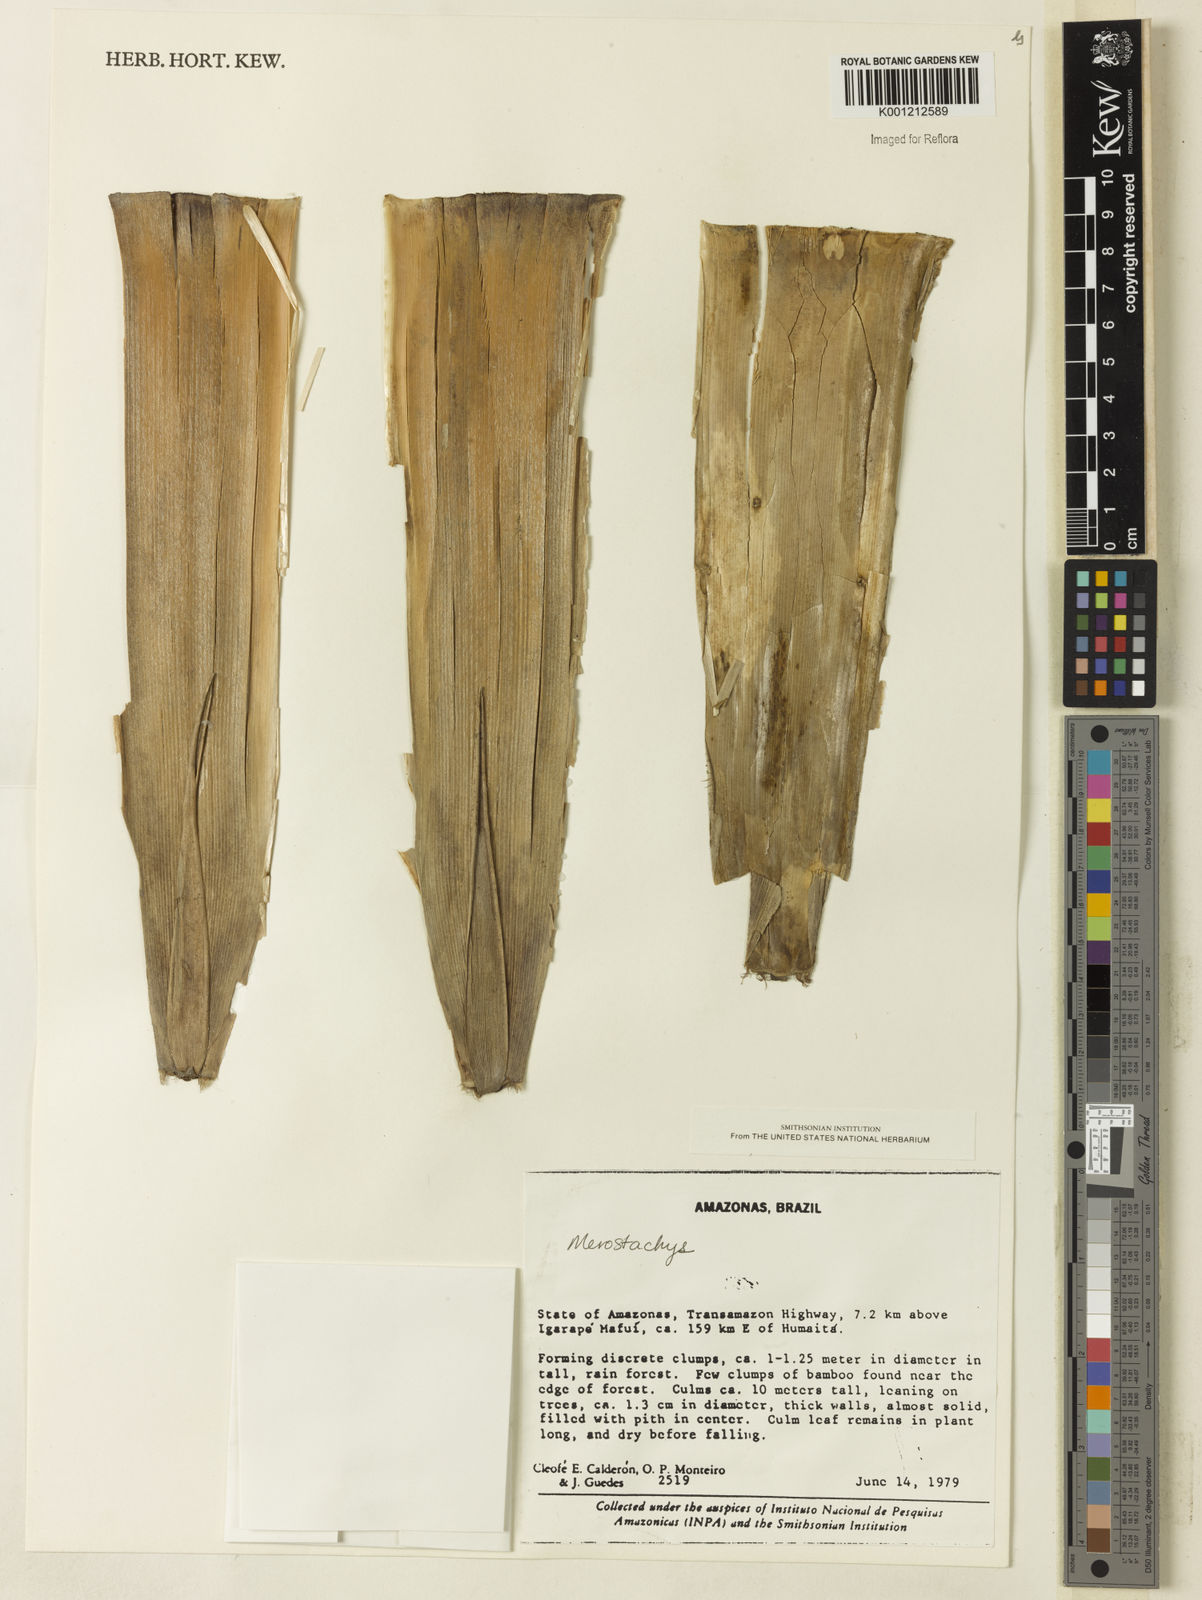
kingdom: Plantae
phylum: Tracheophyta
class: Liliopsida
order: Poales
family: Poaceae
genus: Merostachys
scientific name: Merostachys
